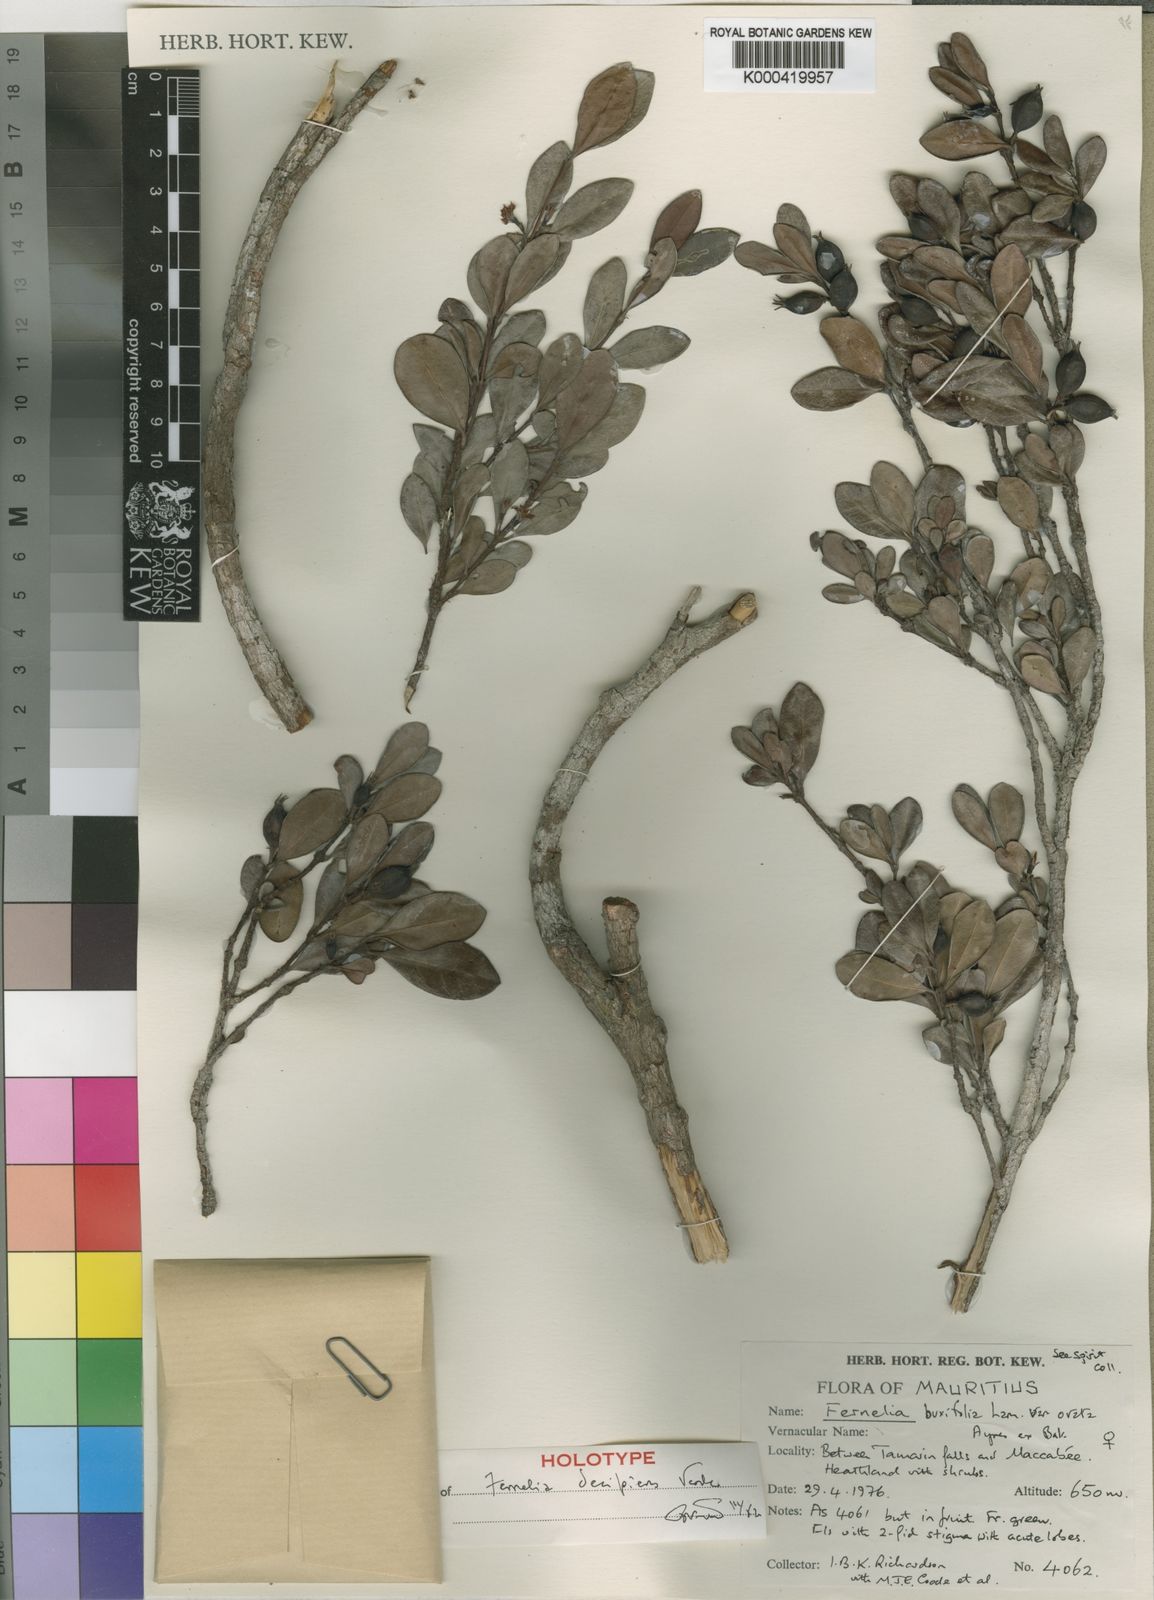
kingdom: Plantae
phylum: Tracheophyta
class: Magnoliopsida
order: Gentianales
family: Rubiaceae
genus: Fernelia
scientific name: Fernelia decipiens
